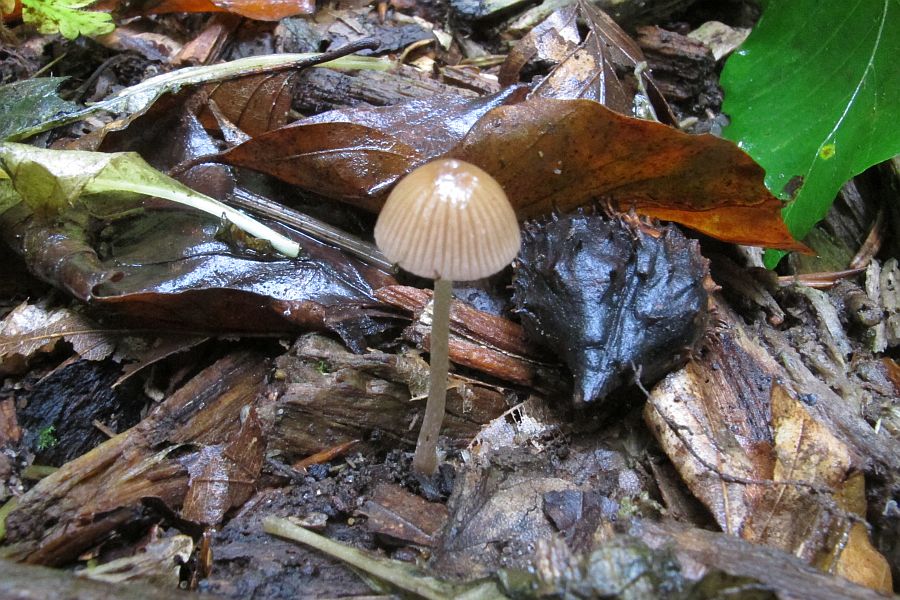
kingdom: Fungi
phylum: Basidiomycota
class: Agaricomycetes
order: Agaricales
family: Psathyrellaceae
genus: Psathyrella
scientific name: Psathyrella obtusata
